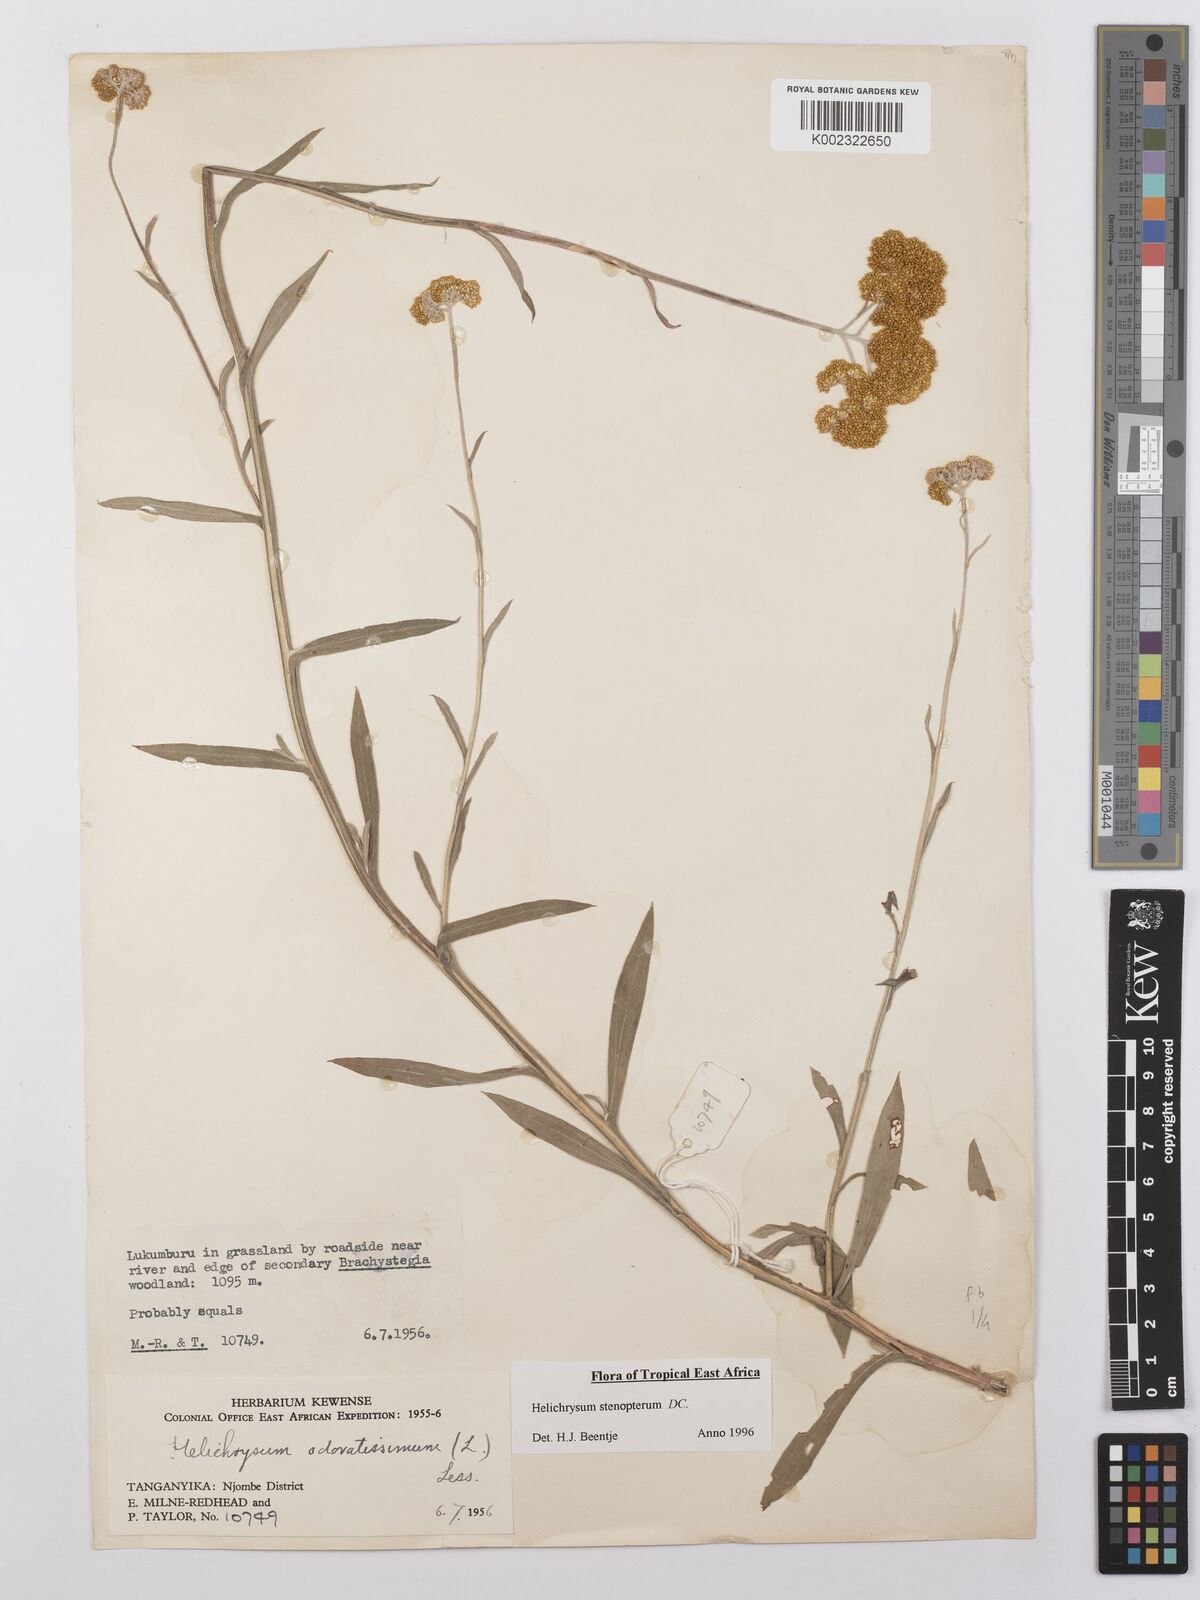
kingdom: Plantae
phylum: Tracheophyta
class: Magnoliopsida
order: Asterales
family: Asteraceae
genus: Helichrysum
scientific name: Helichrysum stenopterum
